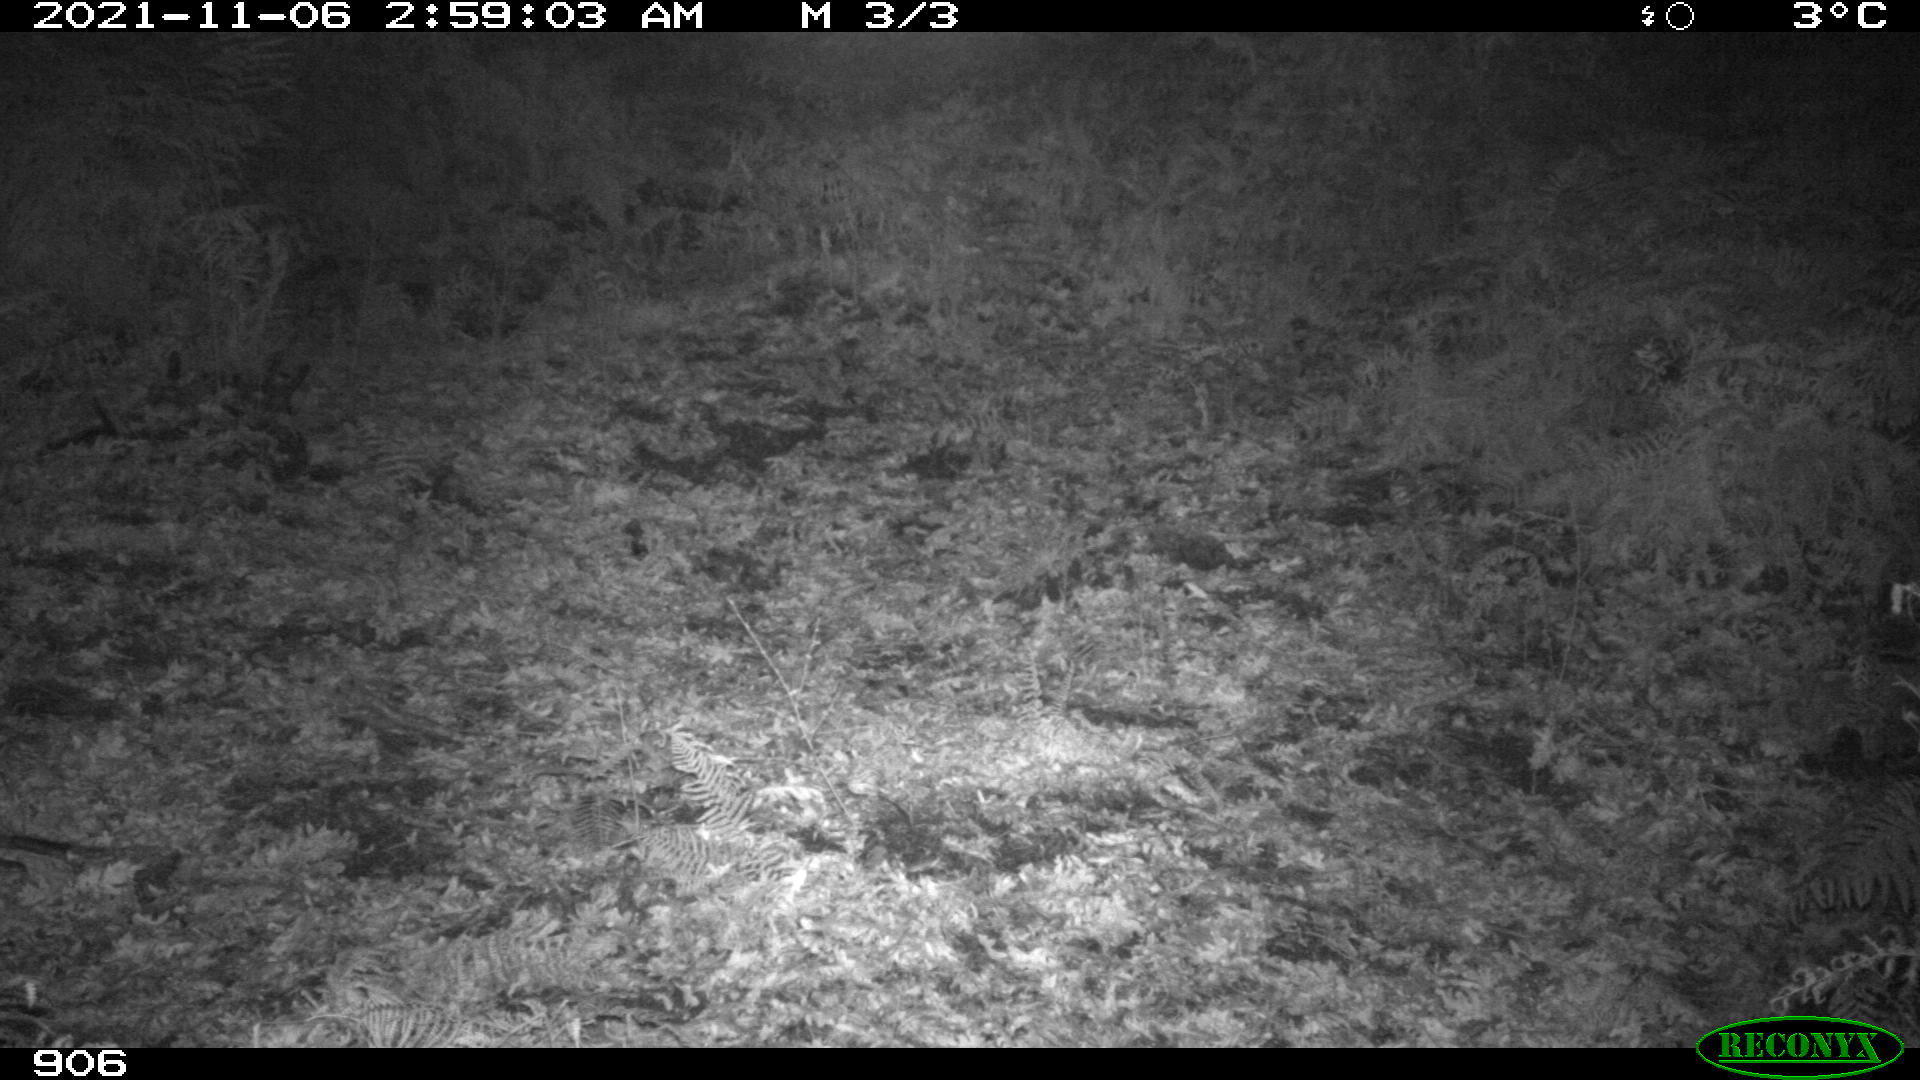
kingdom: Animalia
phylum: Chordata
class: Mammalia
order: Carnivora
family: Canidae
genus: Vulpes
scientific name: Vulpes vulpes
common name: Red fox
